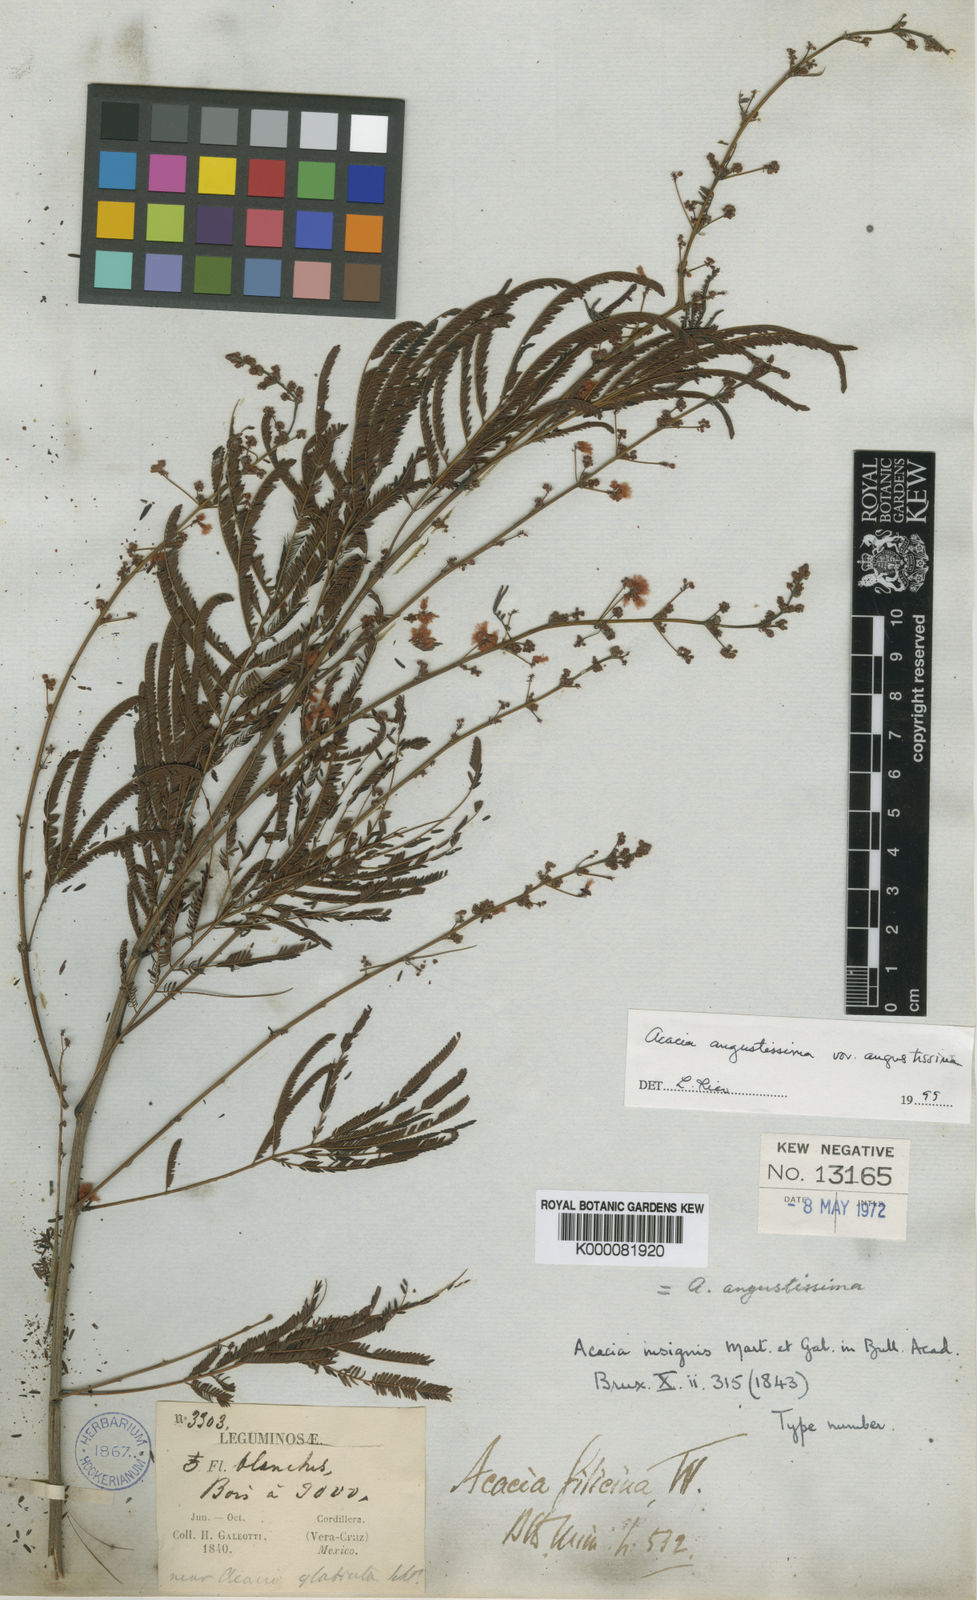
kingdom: Plantae
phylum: Tracheophyta
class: Magnoliopsida
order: Fabales
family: Fabaceae
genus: Acaciella
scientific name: Acaciella angustissima
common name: Prairie acacia
